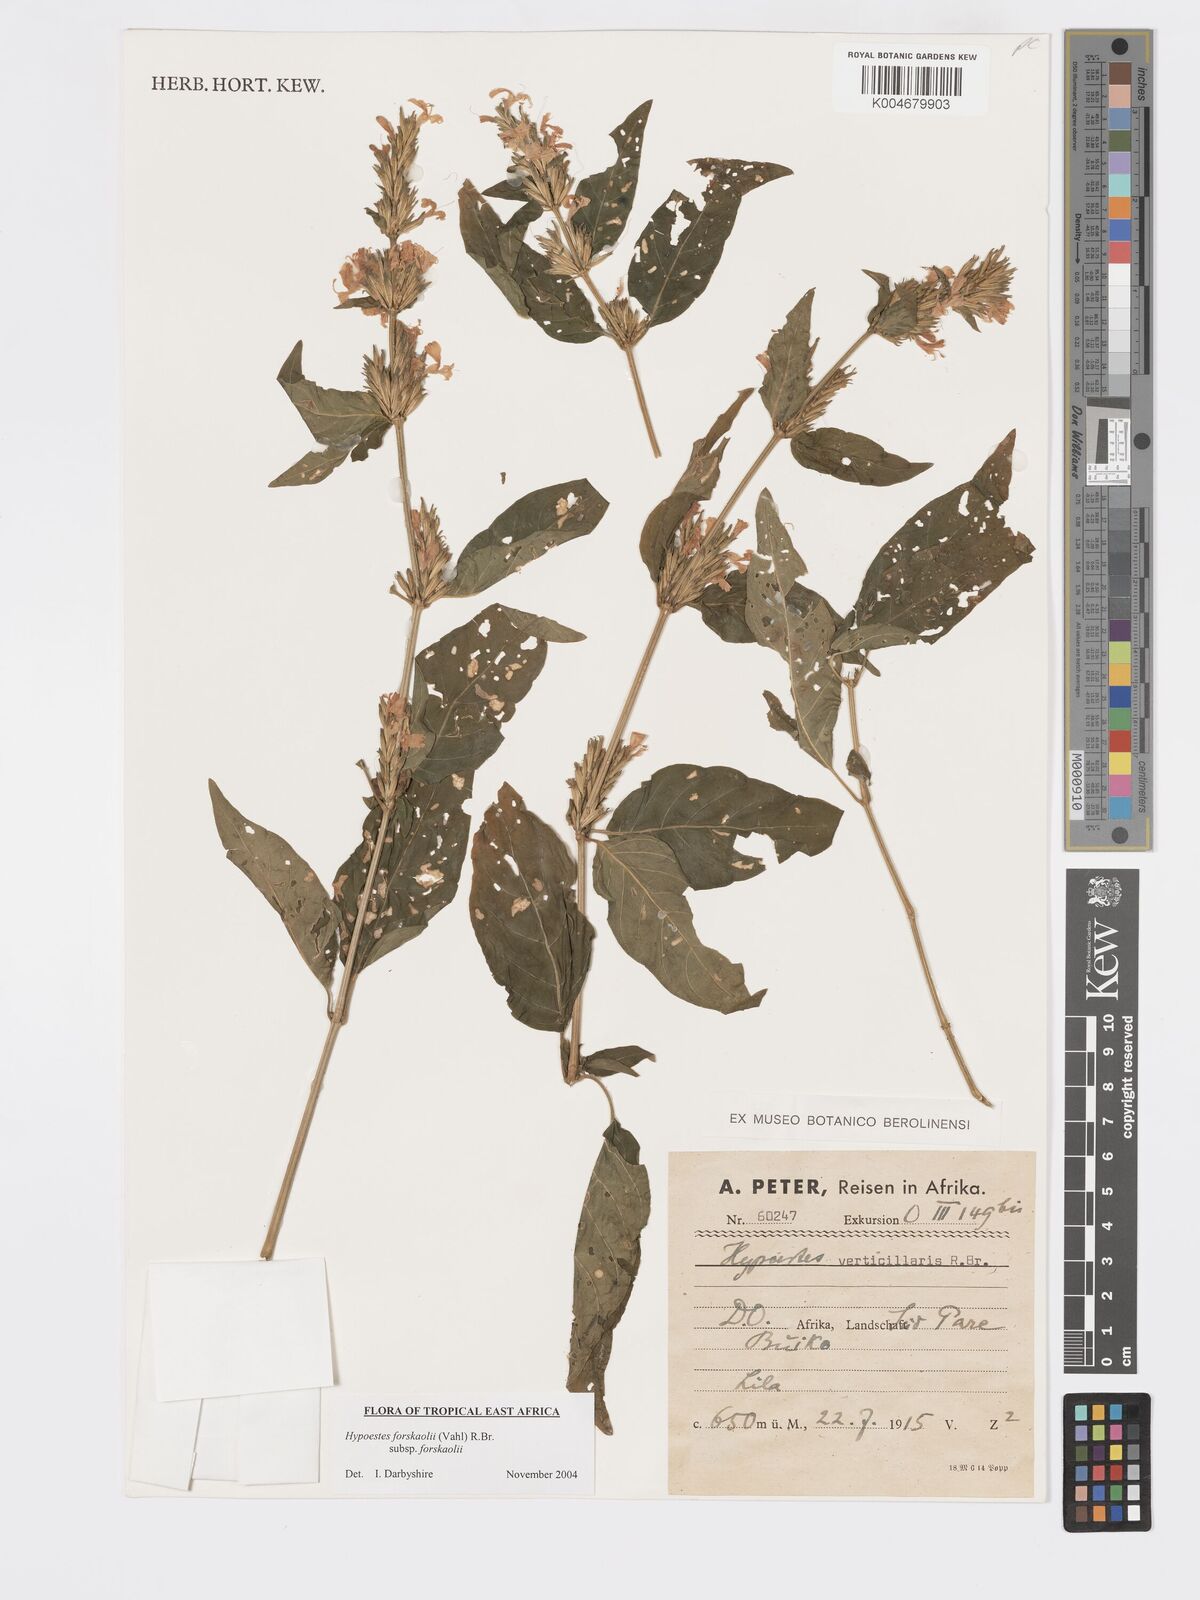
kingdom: Plantae
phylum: Tracheophyta
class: Magnoliopsida
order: Lamiales
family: Acanthaceae
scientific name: Acanthaceae
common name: Acanthaceae
